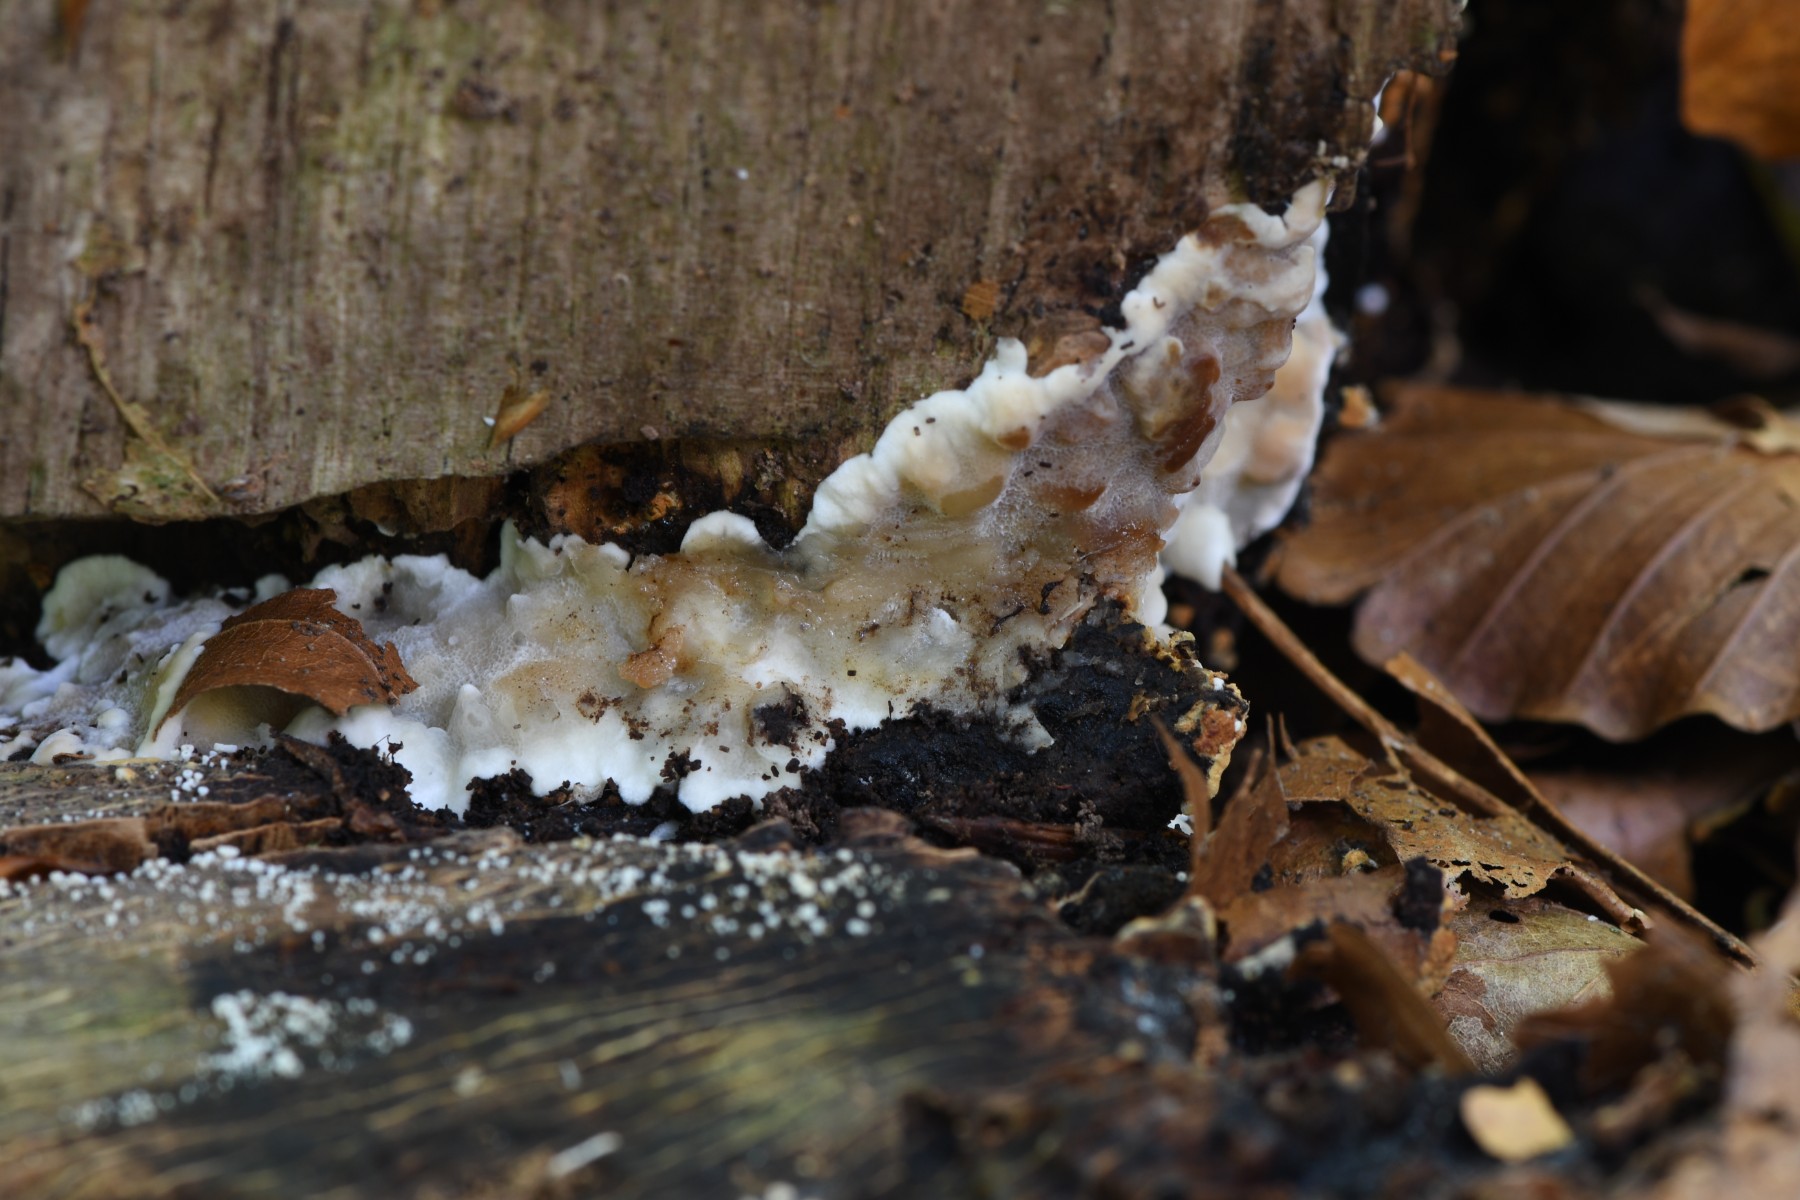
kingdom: Fungi
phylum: Basidiomycota
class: Agaricomycetes
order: Polyporales
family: Meruliaceae
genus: Physisporinus
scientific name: Physisporinus vitreus
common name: mastesvamp
